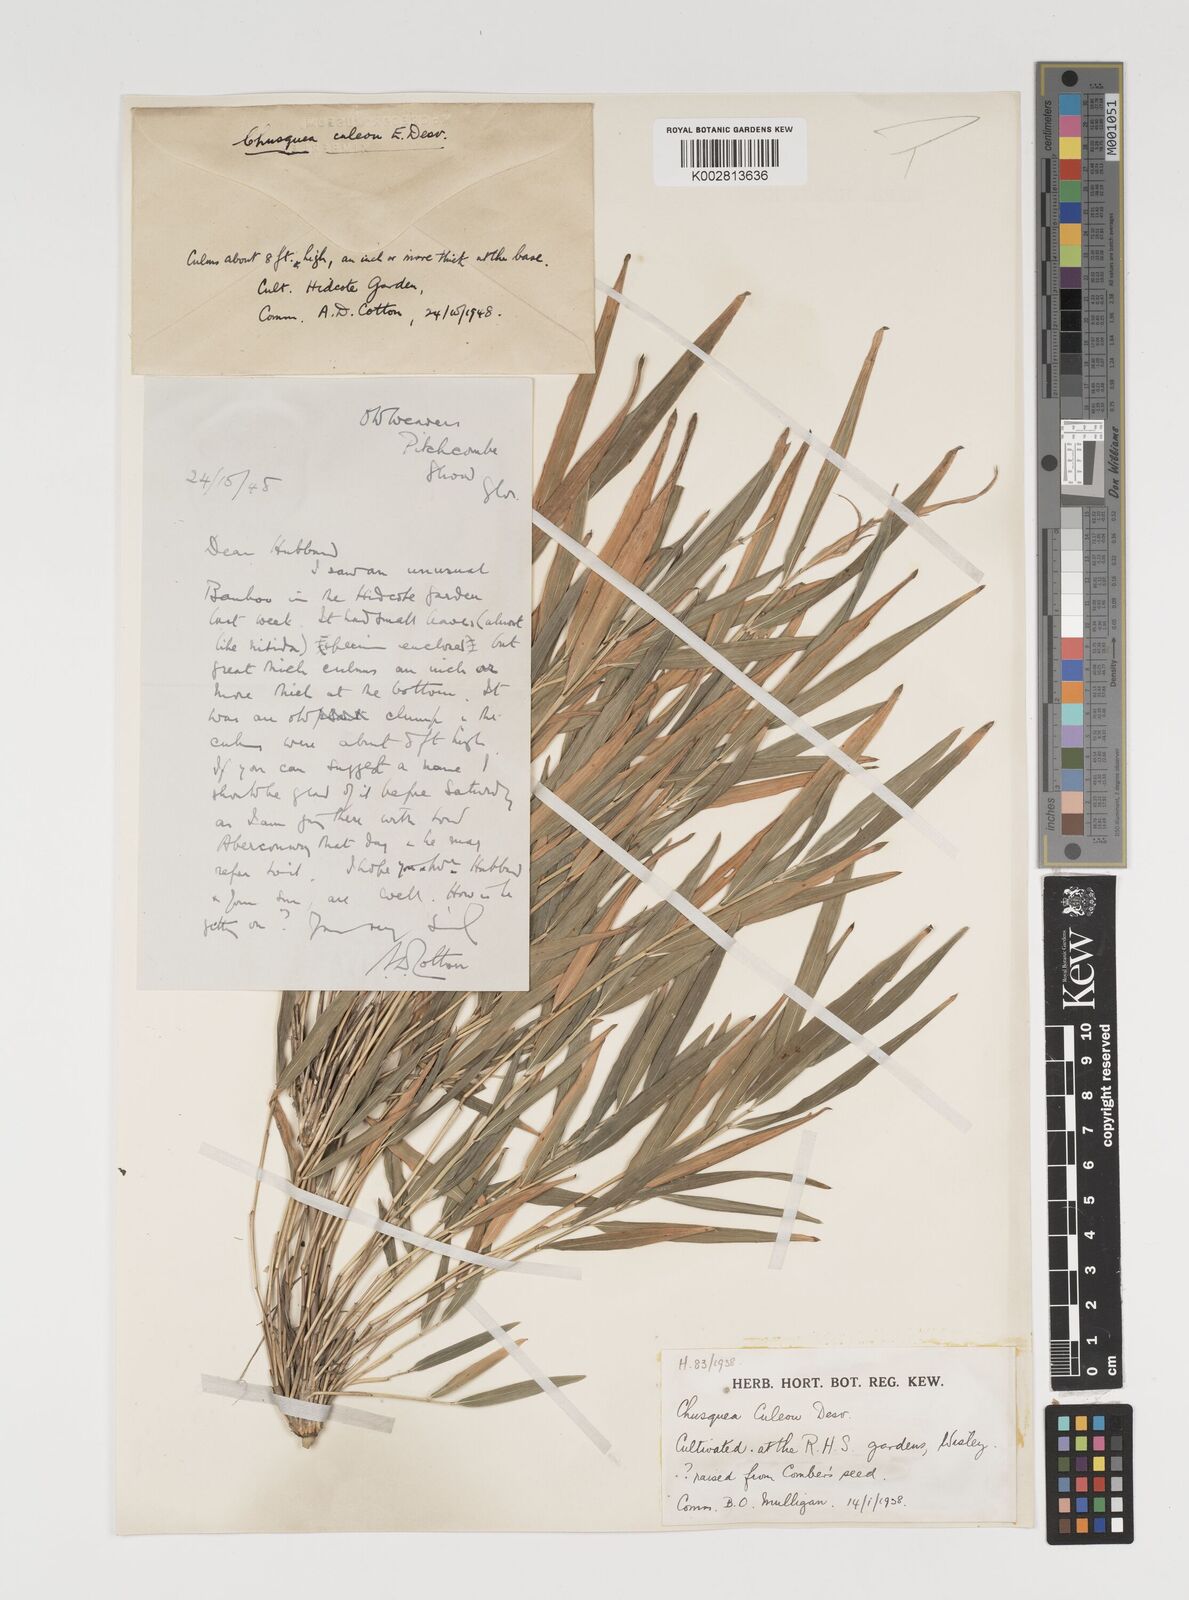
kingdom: Plantae
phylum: Tracheophyta
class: Liliopsida
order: Poales
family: Poaceae
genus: Chusquea
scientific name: Chusquea culeou
